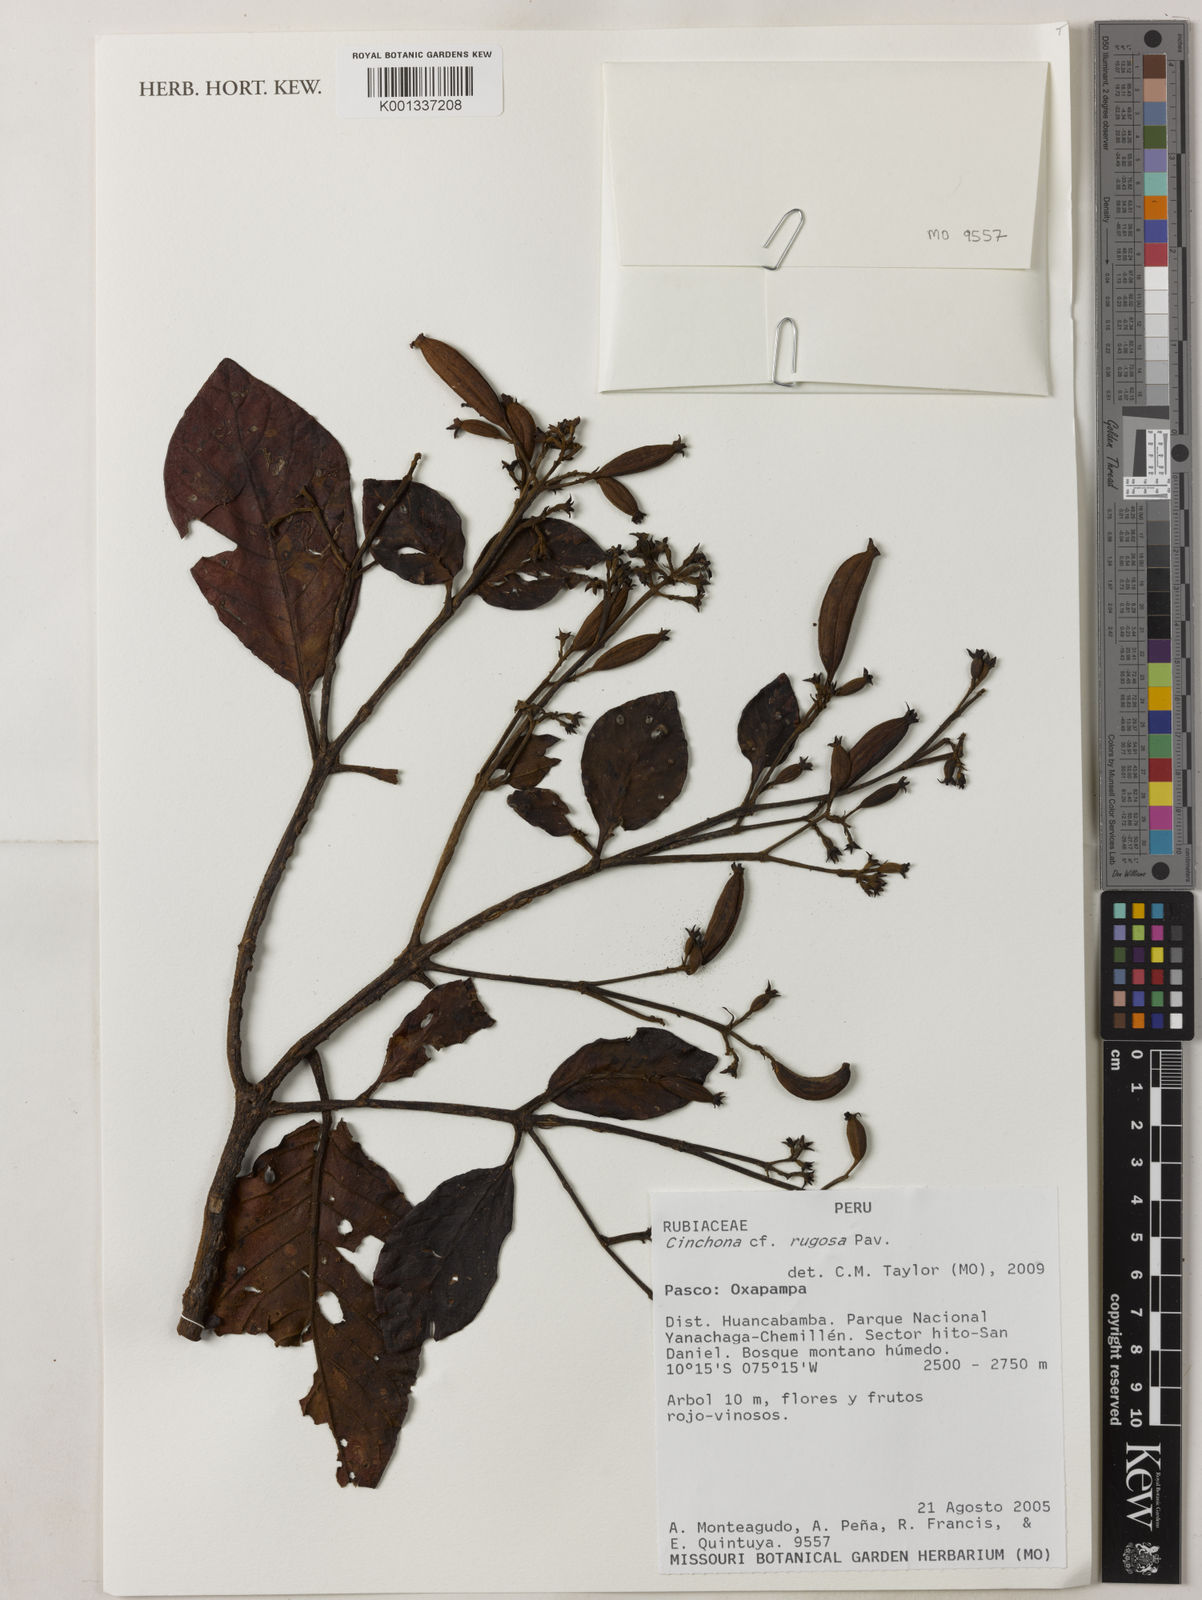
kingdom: Plantae
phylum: Tracheophyta
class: Magnoliopsida
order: Gentianales
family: Rubiaceae
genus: Cinchona
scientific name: Cinchona rugosa
